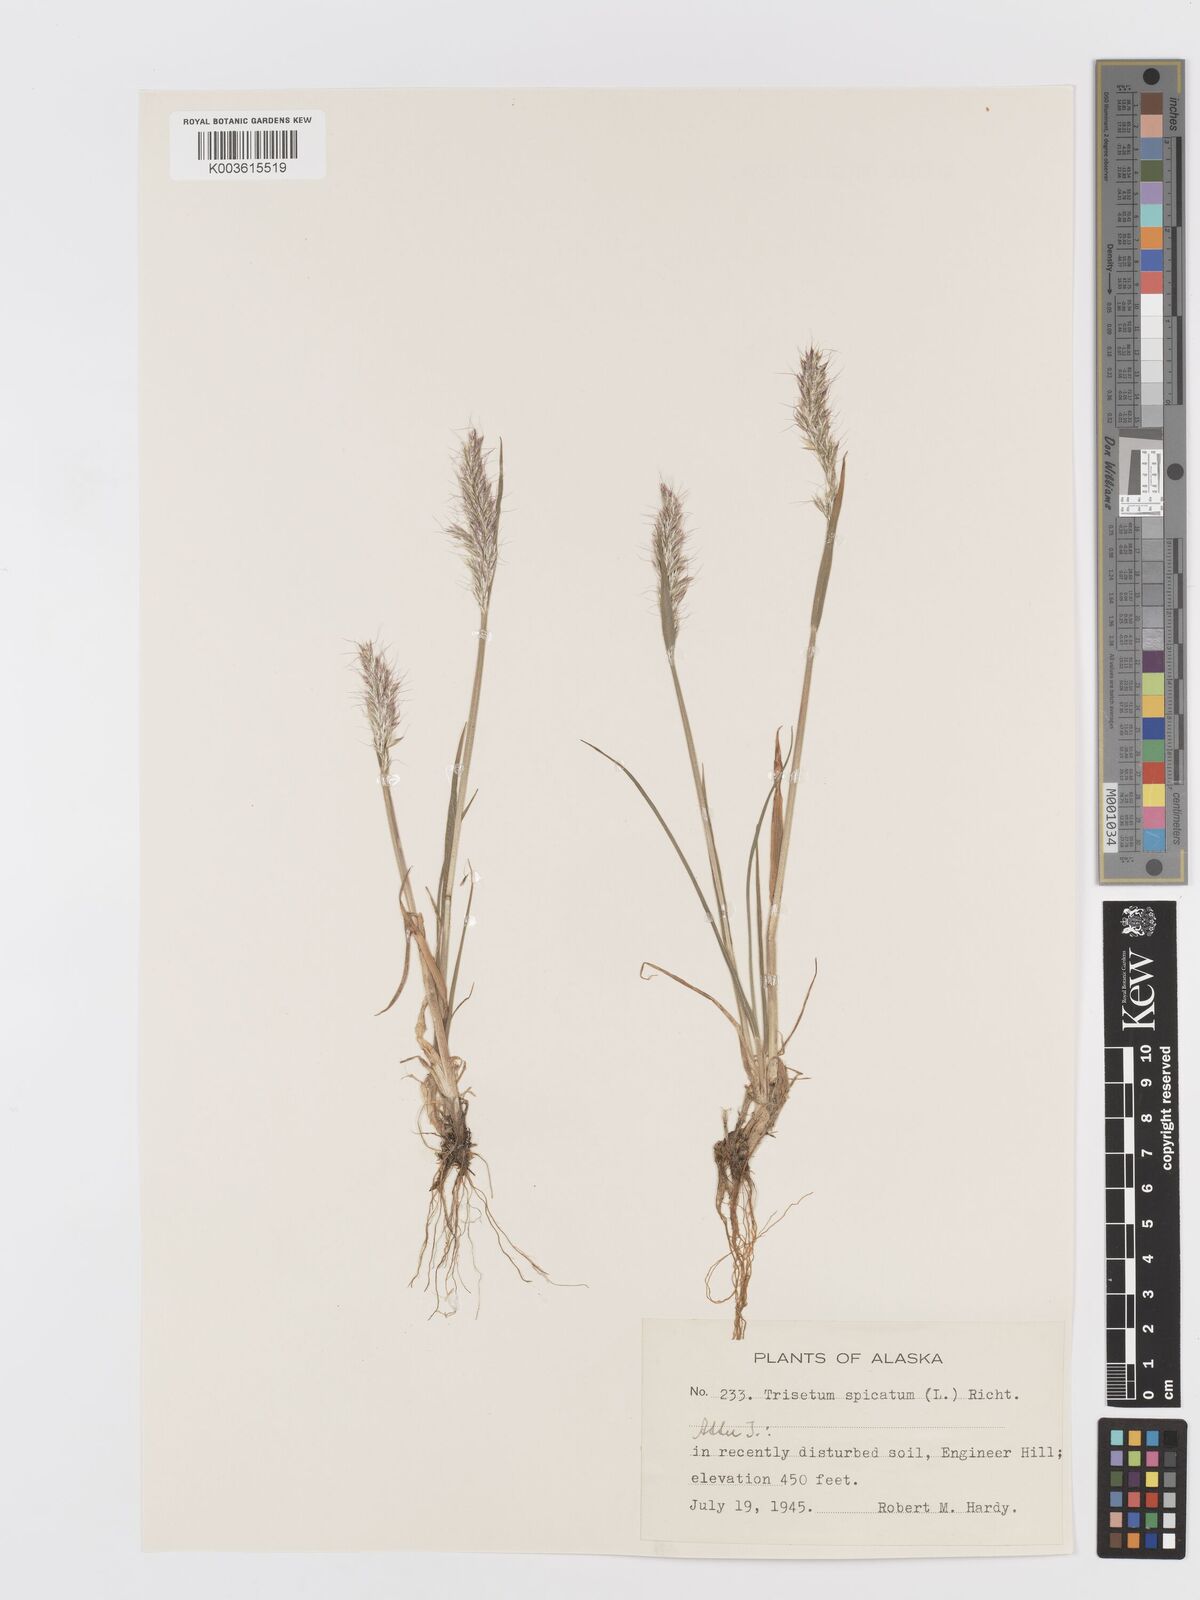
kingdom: Plantae
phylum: Tracheophyta
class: Liliopsida
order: Poales
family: Poaceae
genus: Koeleria
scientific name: Koeleria spicata
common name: Mountain trisetum
